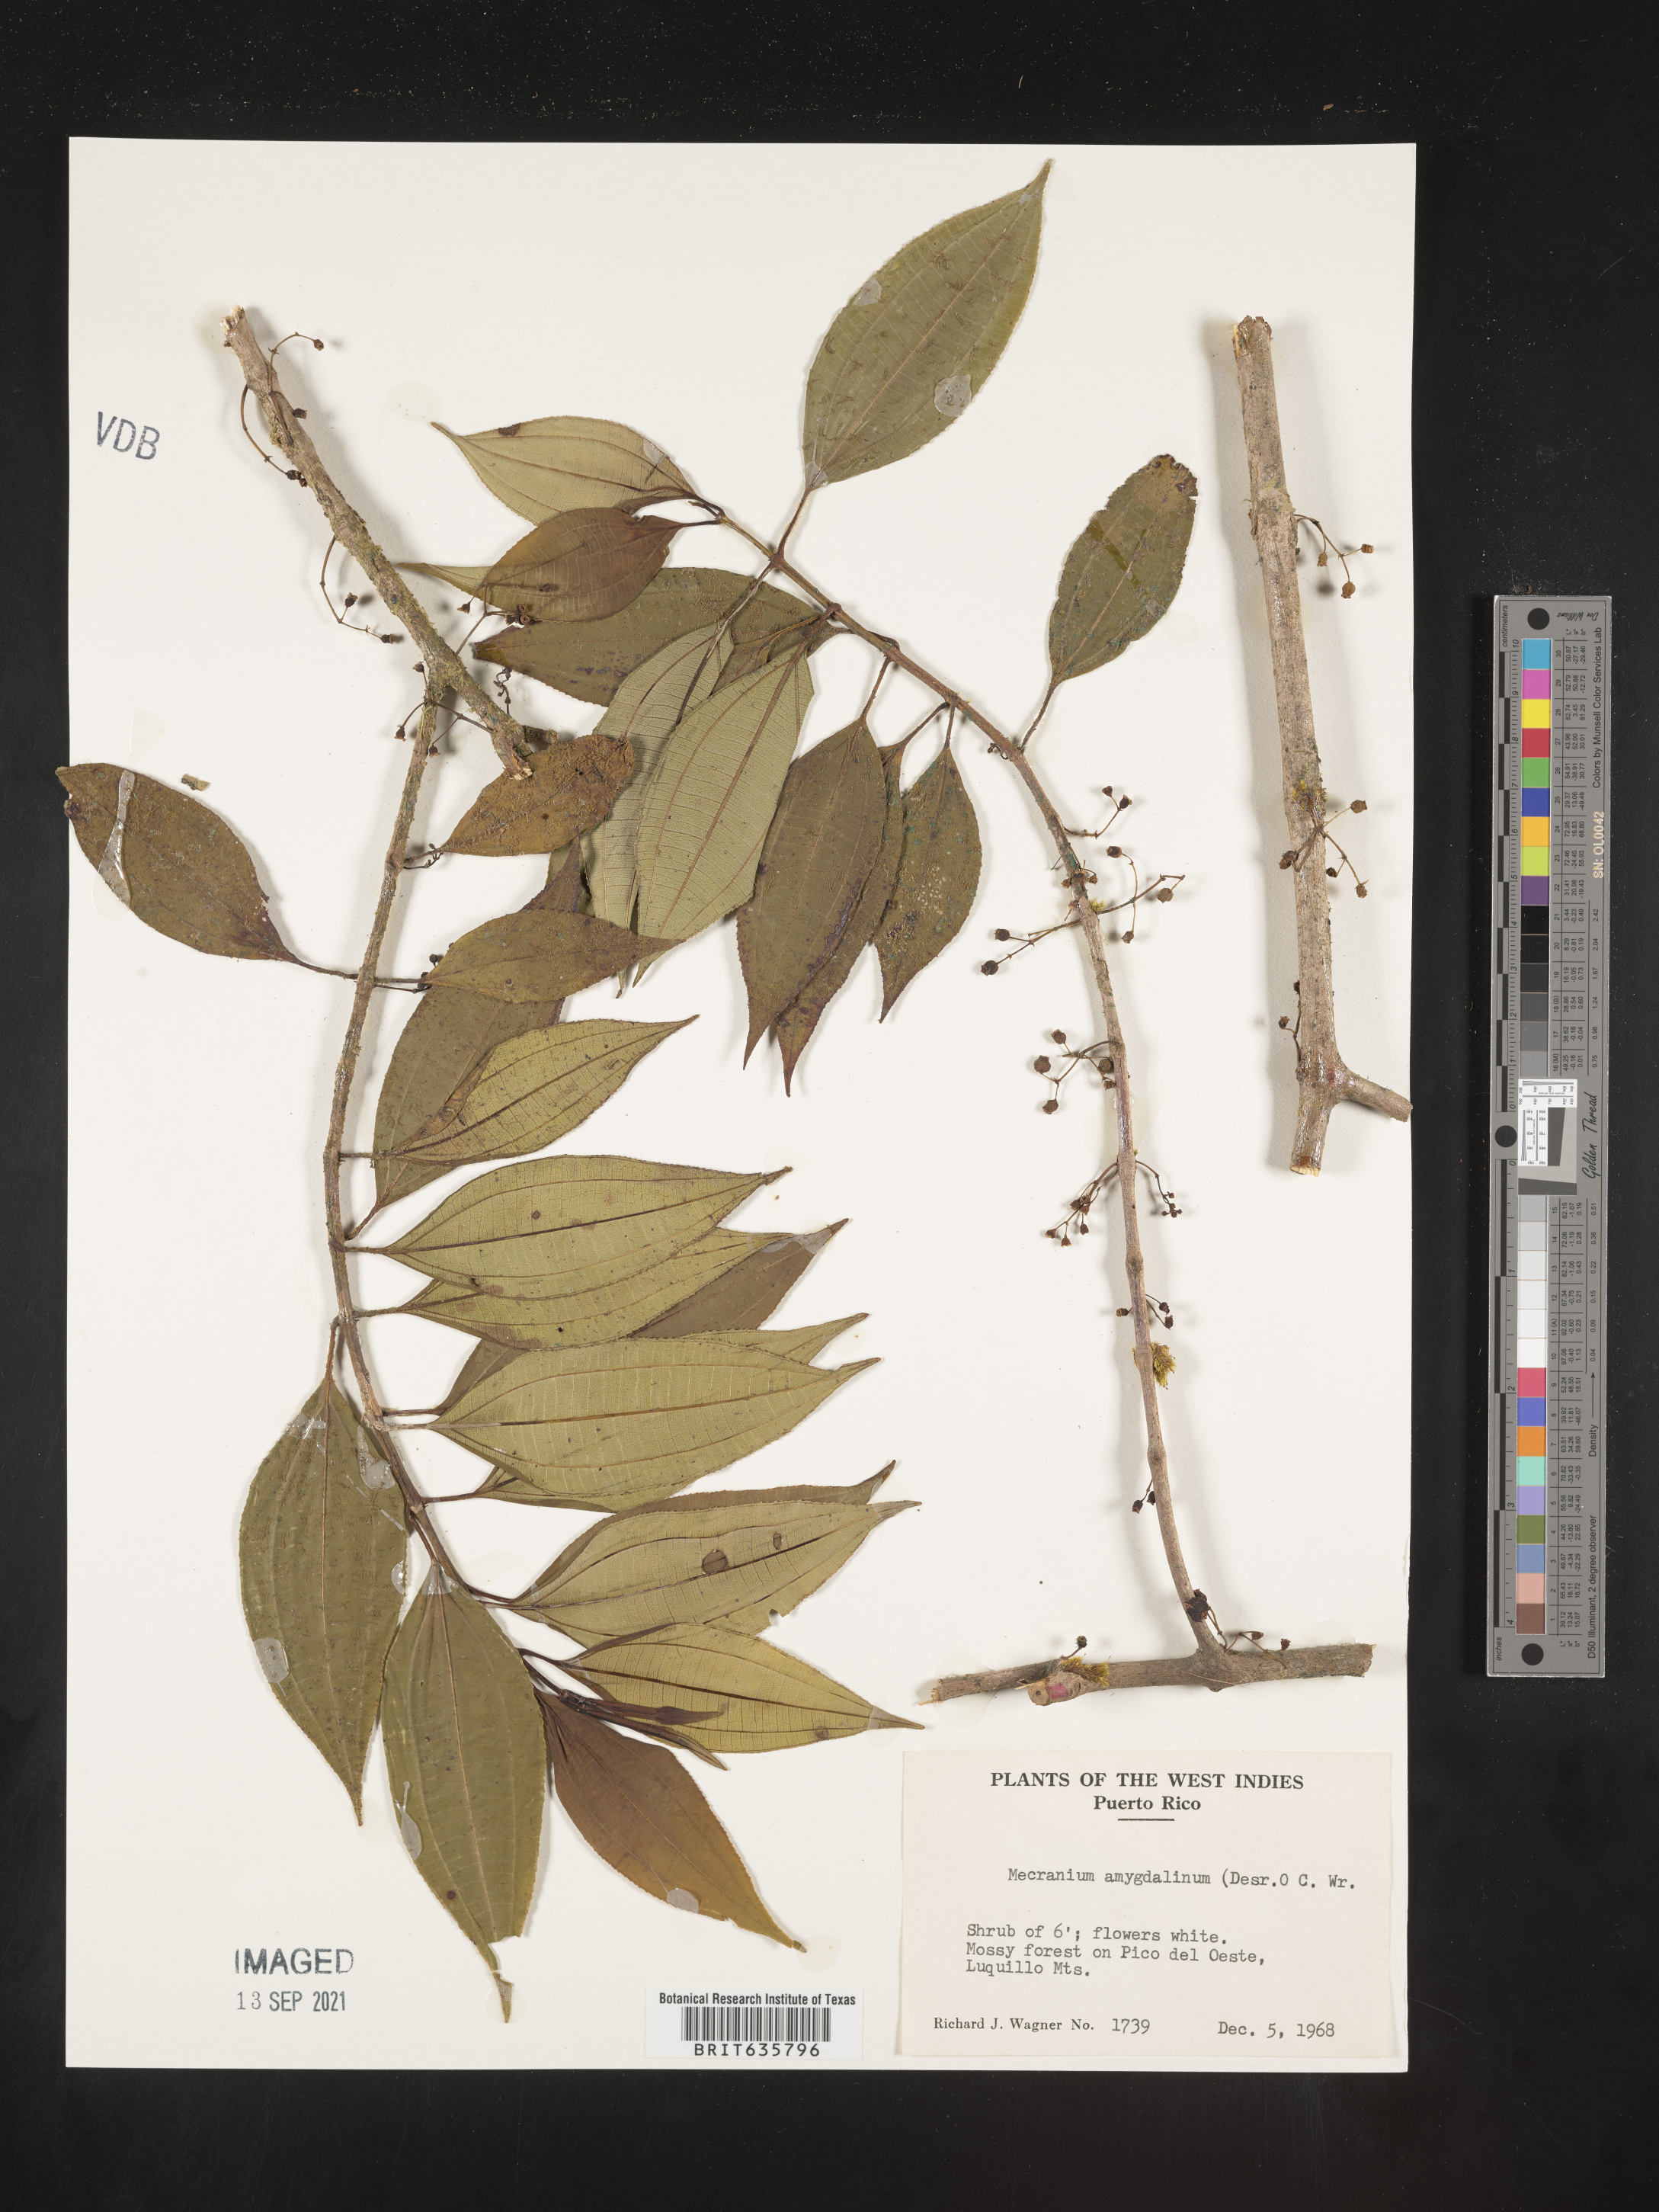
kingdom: Plantae
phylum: Tracheophyta
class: Magnoliopsida
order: Myrtales
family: Melastomataceae
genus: Miconia
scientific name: Miconia
